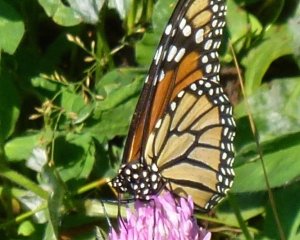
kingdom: Animalia
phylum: Arthropoda
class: Insecta
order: Lepidoptera
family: Nymphalidae
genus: Danaus
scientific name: Danaus plexippus
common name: Monarch
